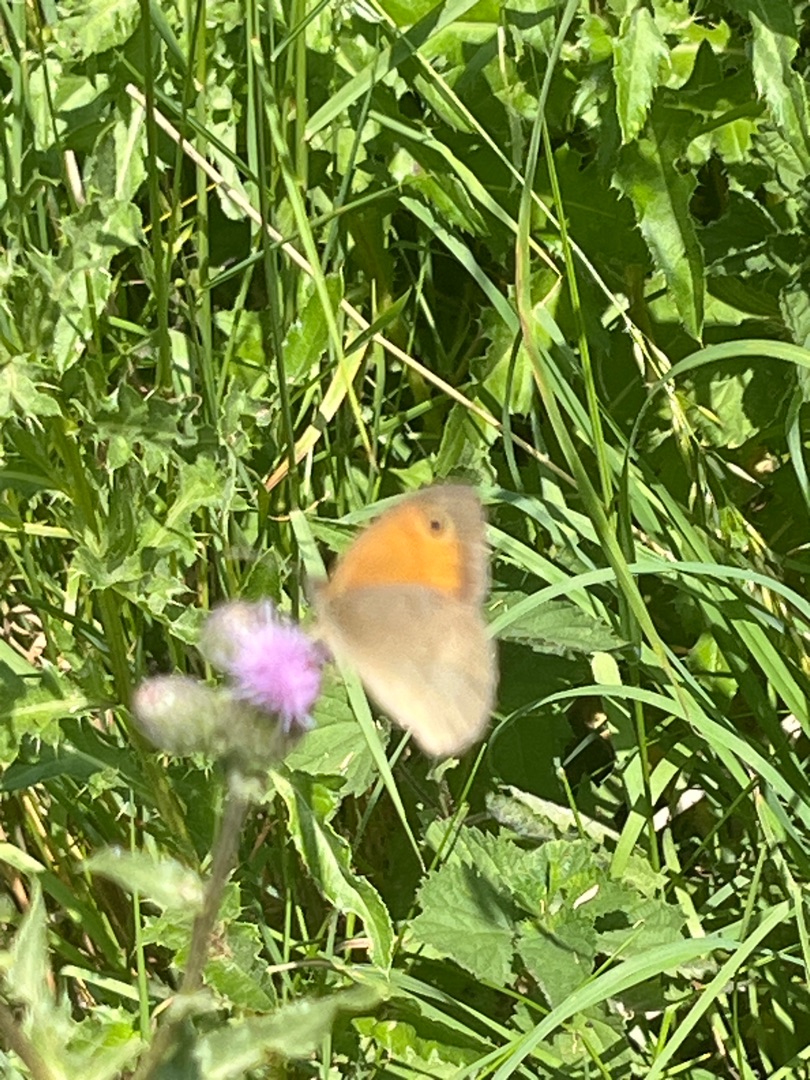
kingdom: Animalia
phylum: Arthropoda
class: Insecta
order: Lepidoptera
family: Nymphalidae
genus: Maniola
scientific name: Maniola jurtina
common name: Græsrandøje
